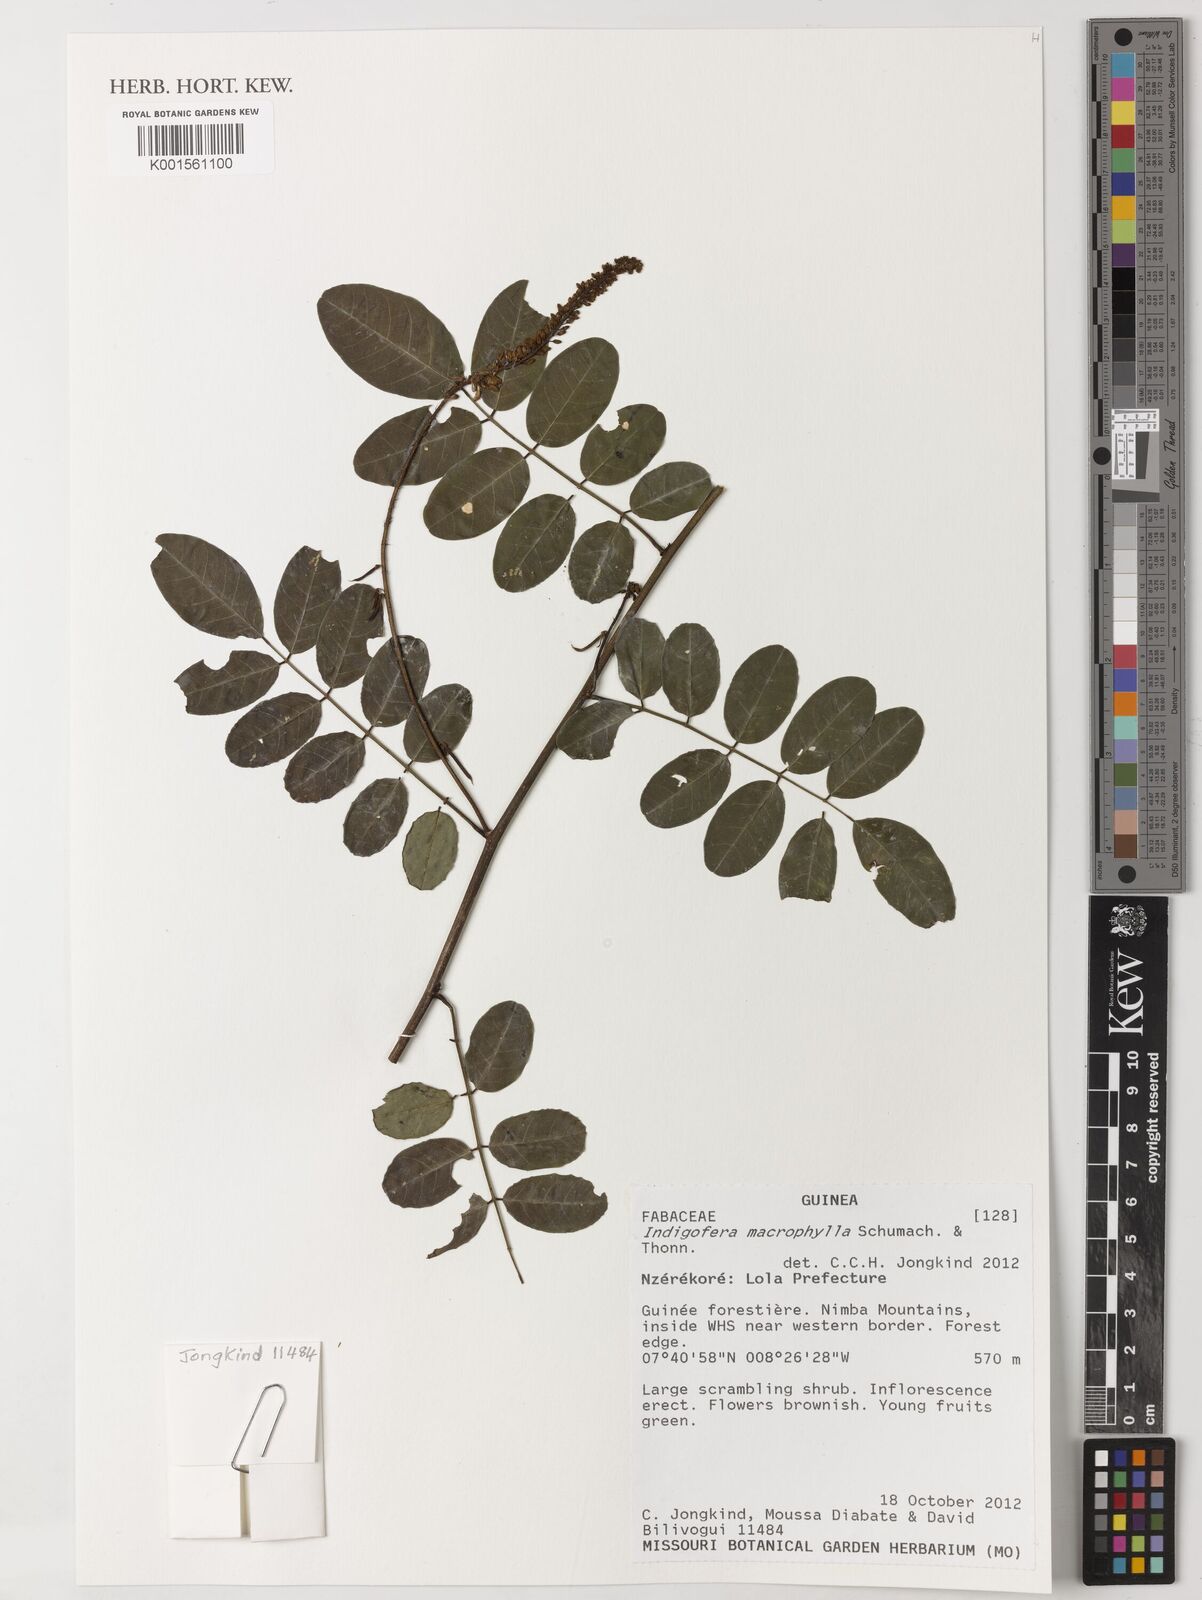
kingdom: Plantae
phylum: Tracheophyta
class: Magnoliopsida
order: Fabales
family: Fabaceae
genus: Indigofera
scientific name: Indigofera macrophylla
